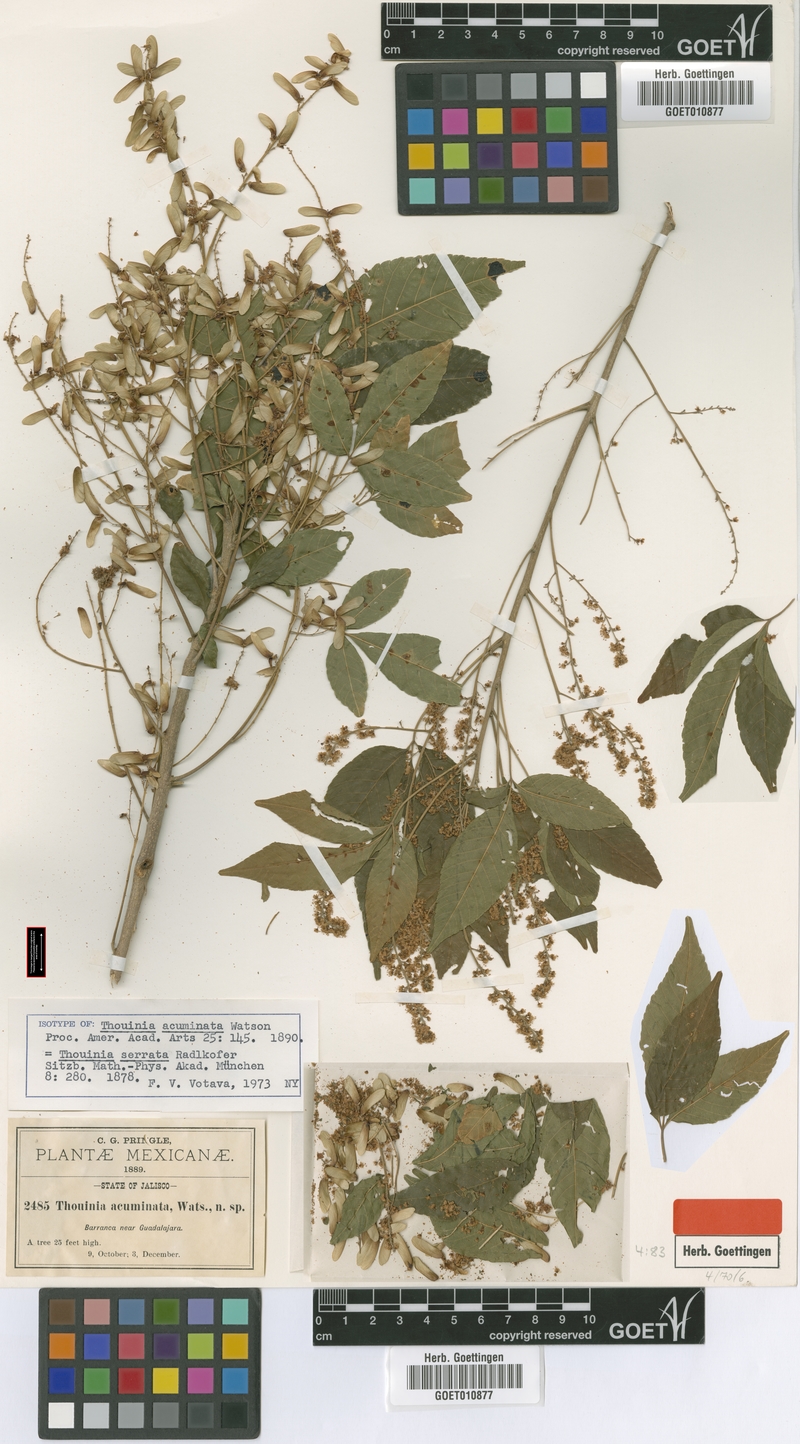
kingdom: Plantae
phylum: Tracheophyta
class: Magnoliopsida
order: Sapindales
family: Sapindaceae
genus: Thouinia
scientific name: Thouinia serrata
